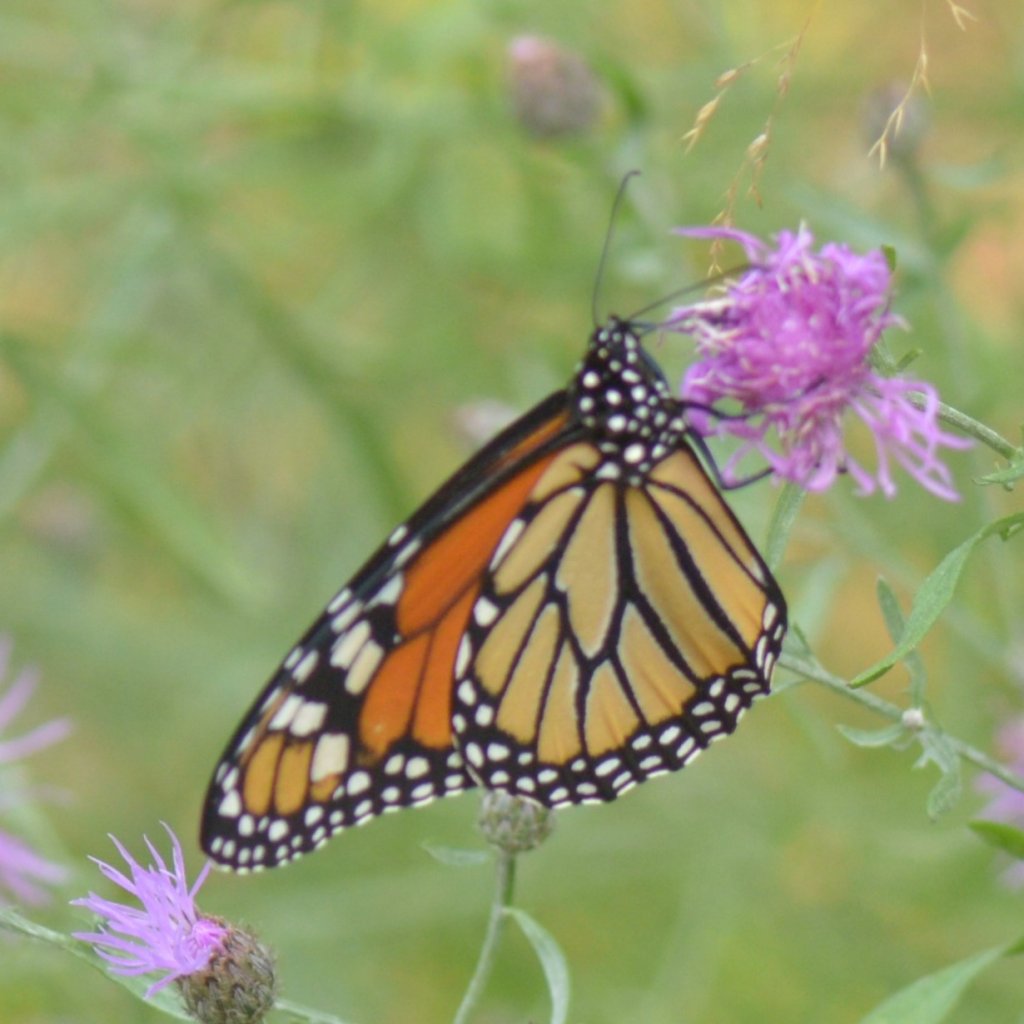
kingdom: Animalia
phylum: Arthropoda
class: Insecta
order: Lepidoptera
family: Nymphalidae
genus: Danaus
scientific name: Danaus plexippus
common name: Monarch
